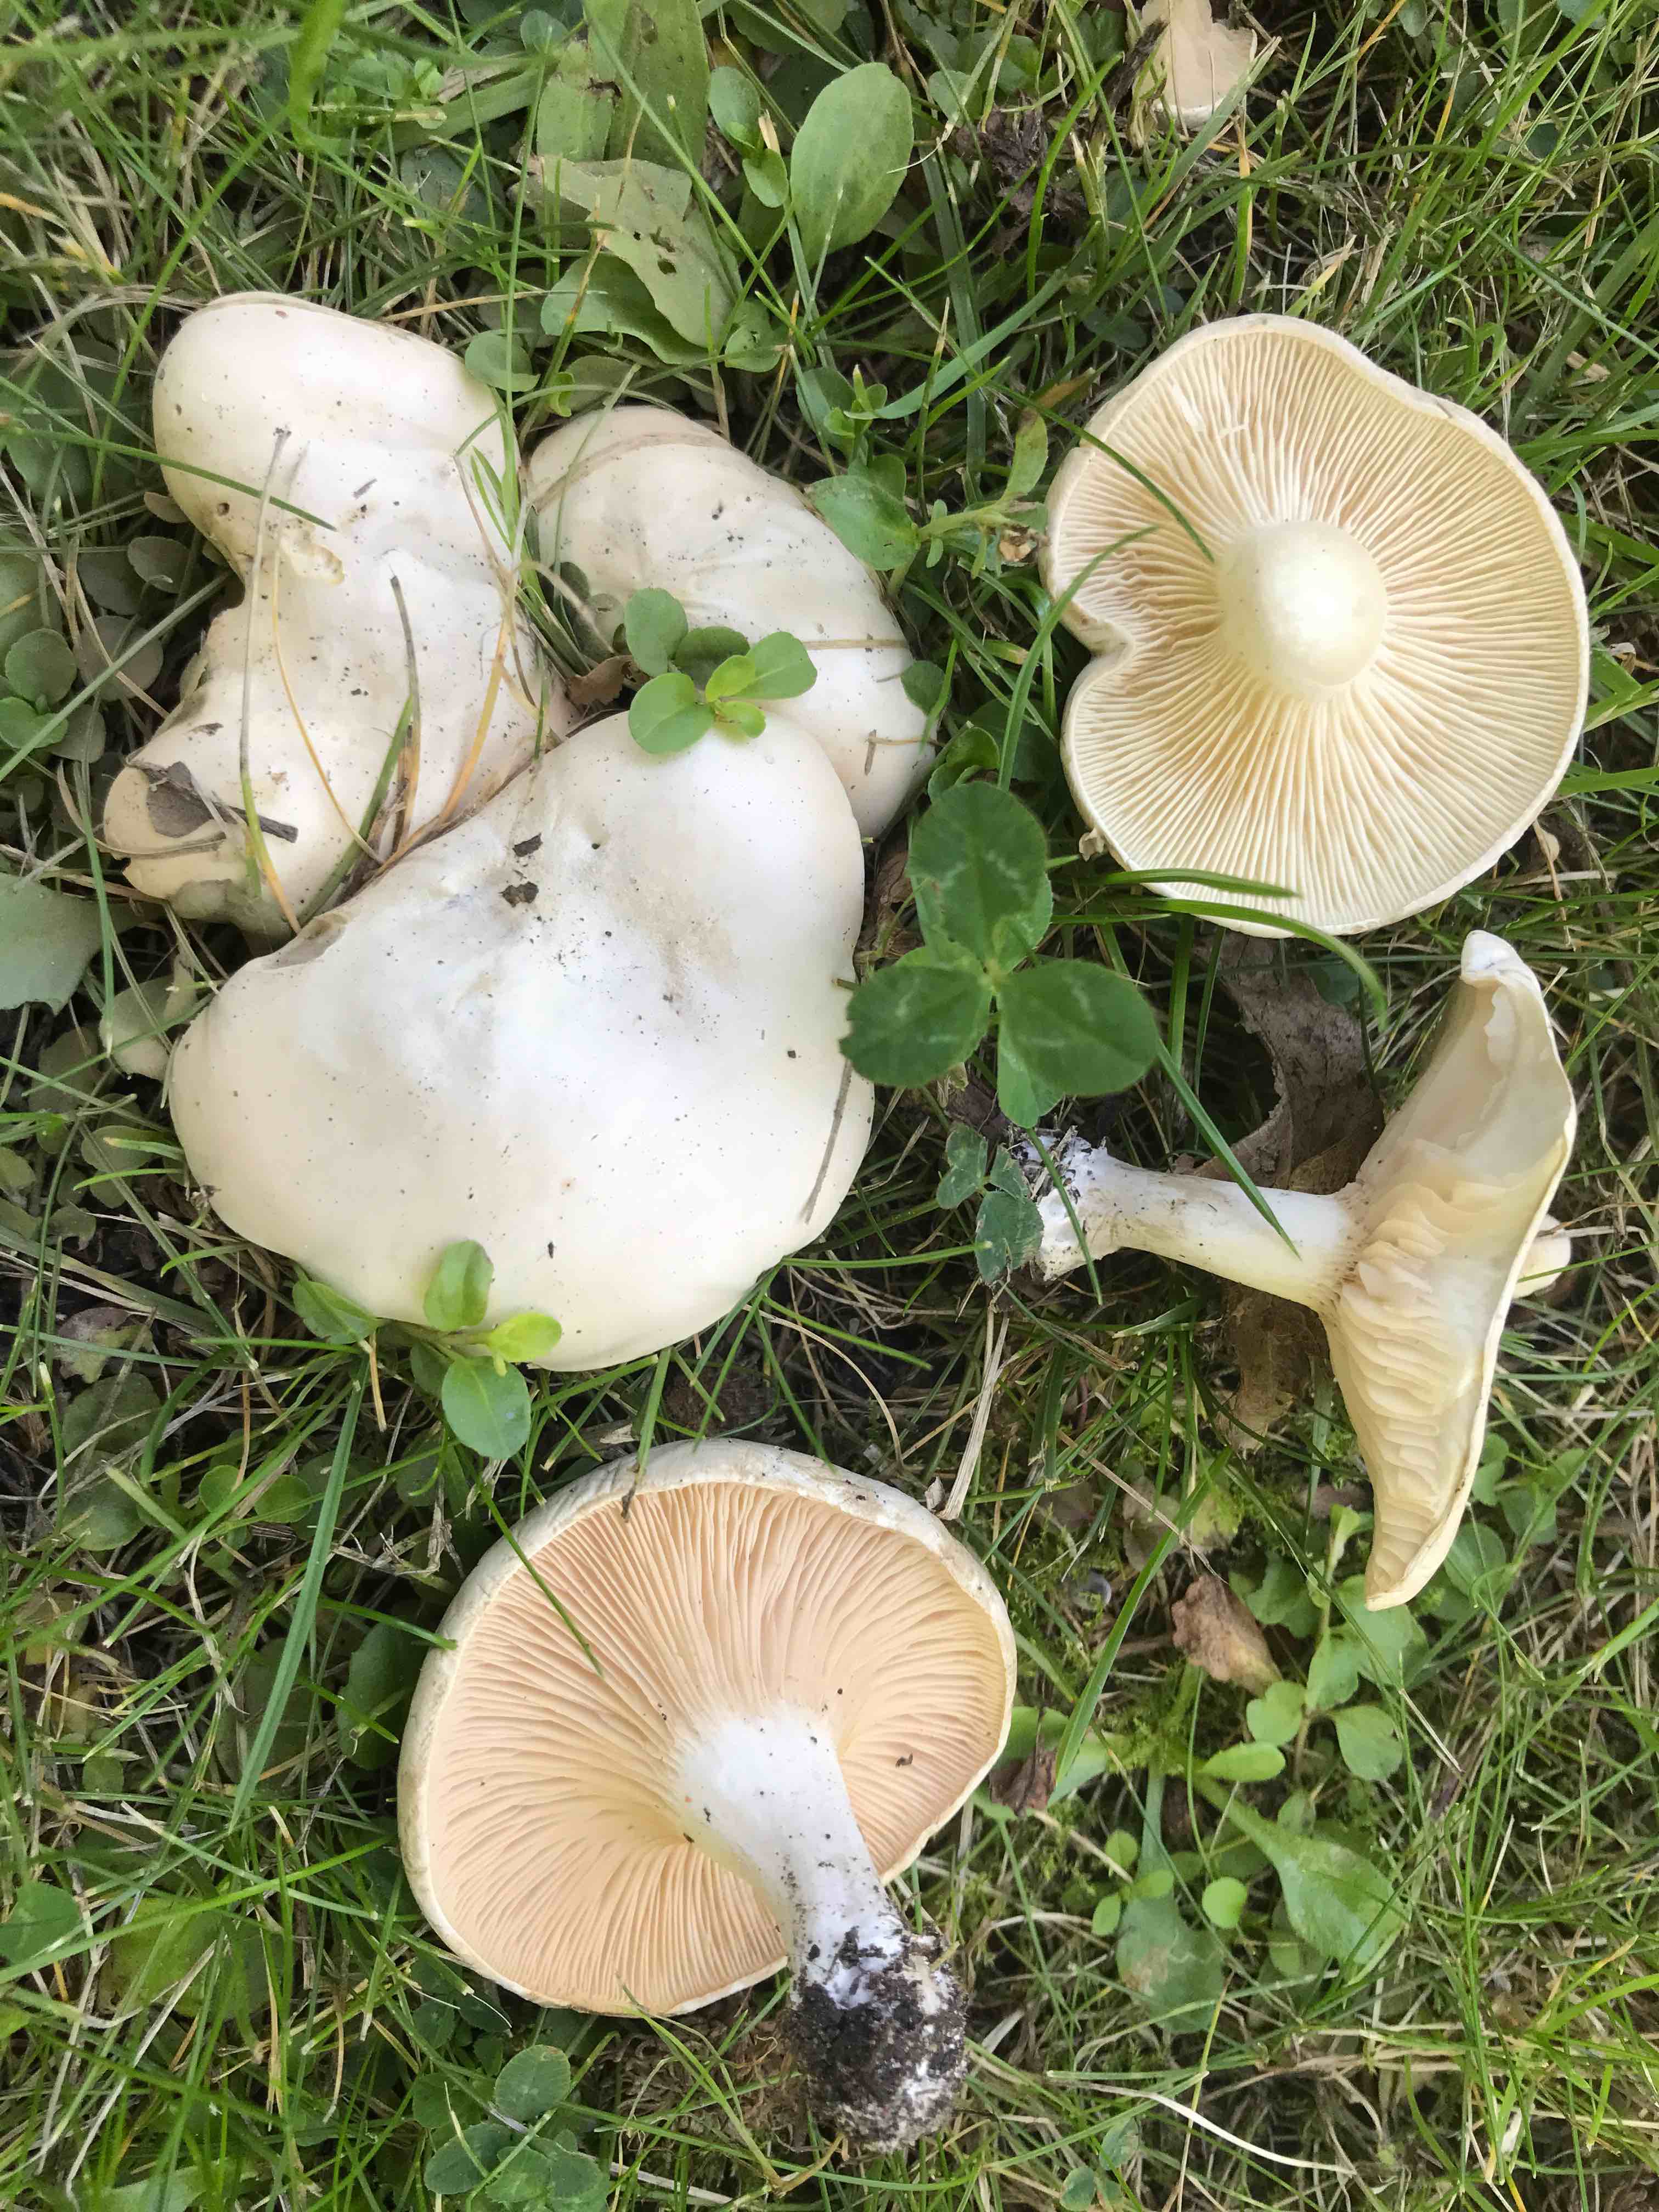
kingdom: Fungi
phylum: Basidiomycota
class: Agaricomycetes
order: Agaricales
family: Entolomataceae
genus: Clitopilus
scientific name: Clitopilus prunulus
